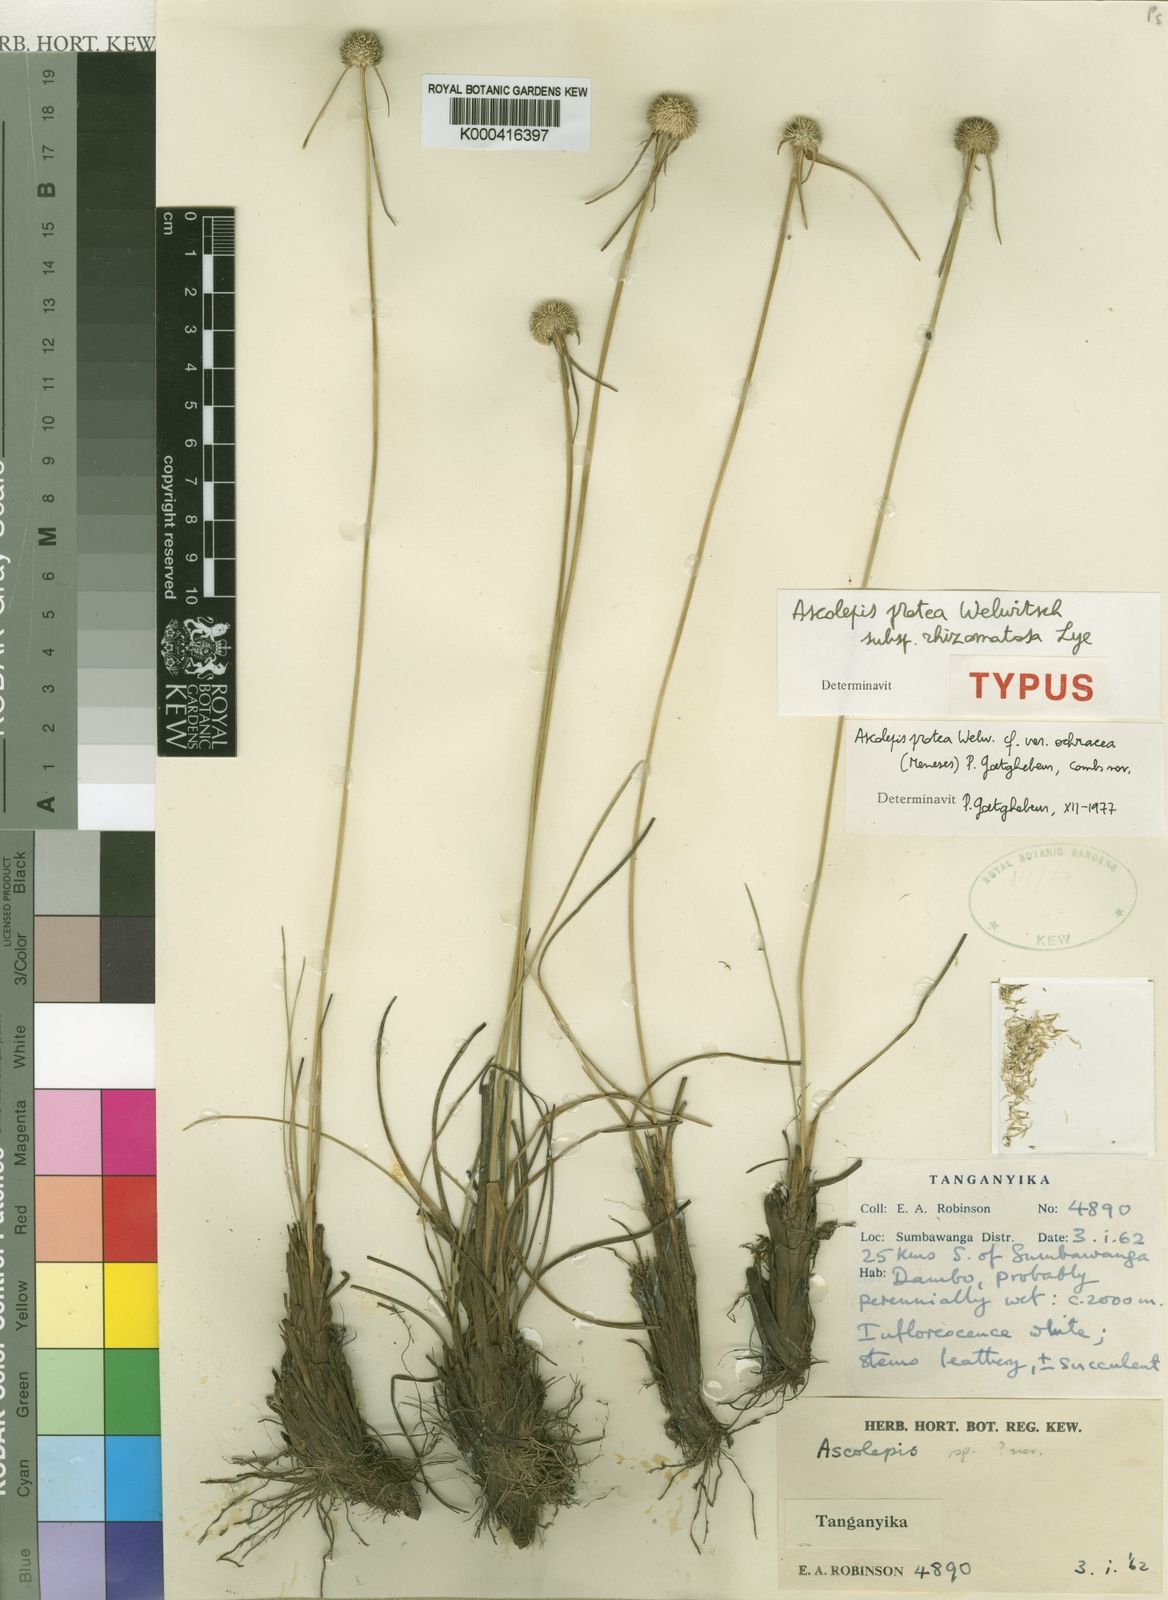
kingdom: Plantae
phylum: Tracheophyta
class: Liliopsida
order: Poales
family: Cyperaceae
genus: Cyperus
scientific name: Cyperus proteus
